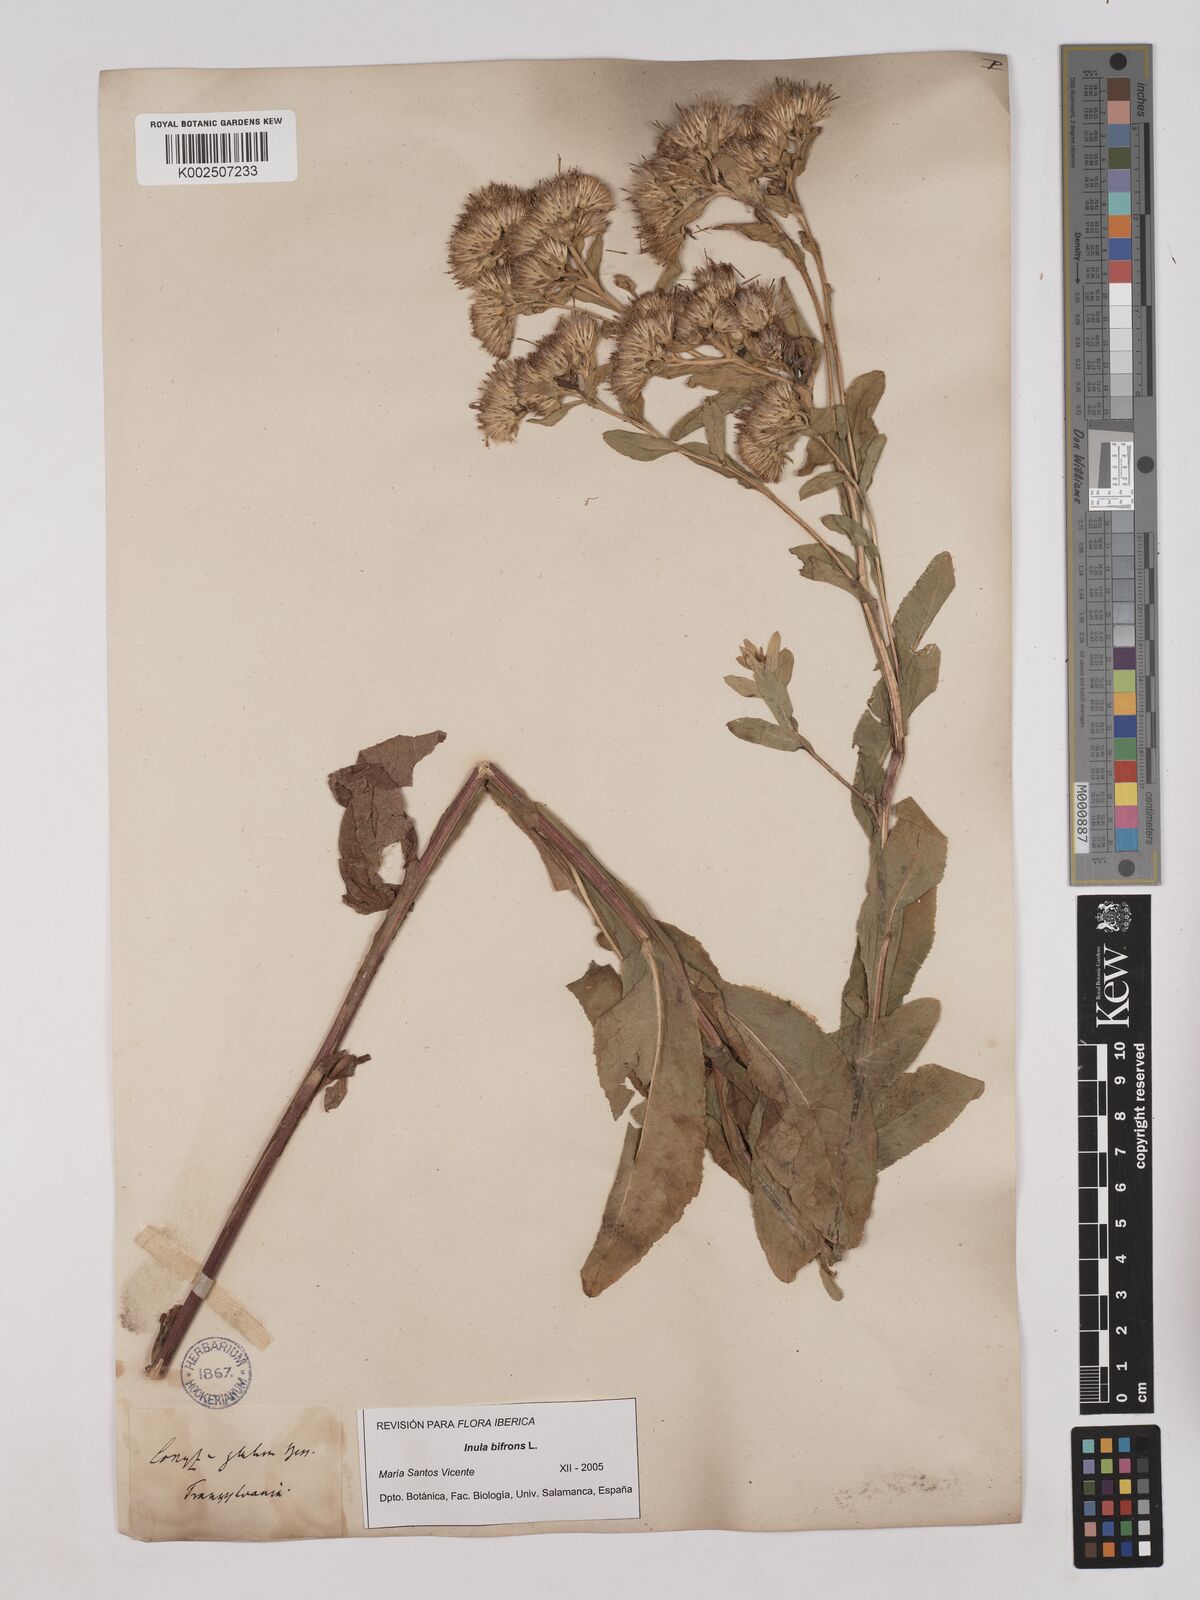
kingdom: Plantae
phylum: Tracheophyta
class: Magnoliopsida
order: Asterales
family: Asteraceae
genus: Pentanema
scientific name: Pentanema bifrons
